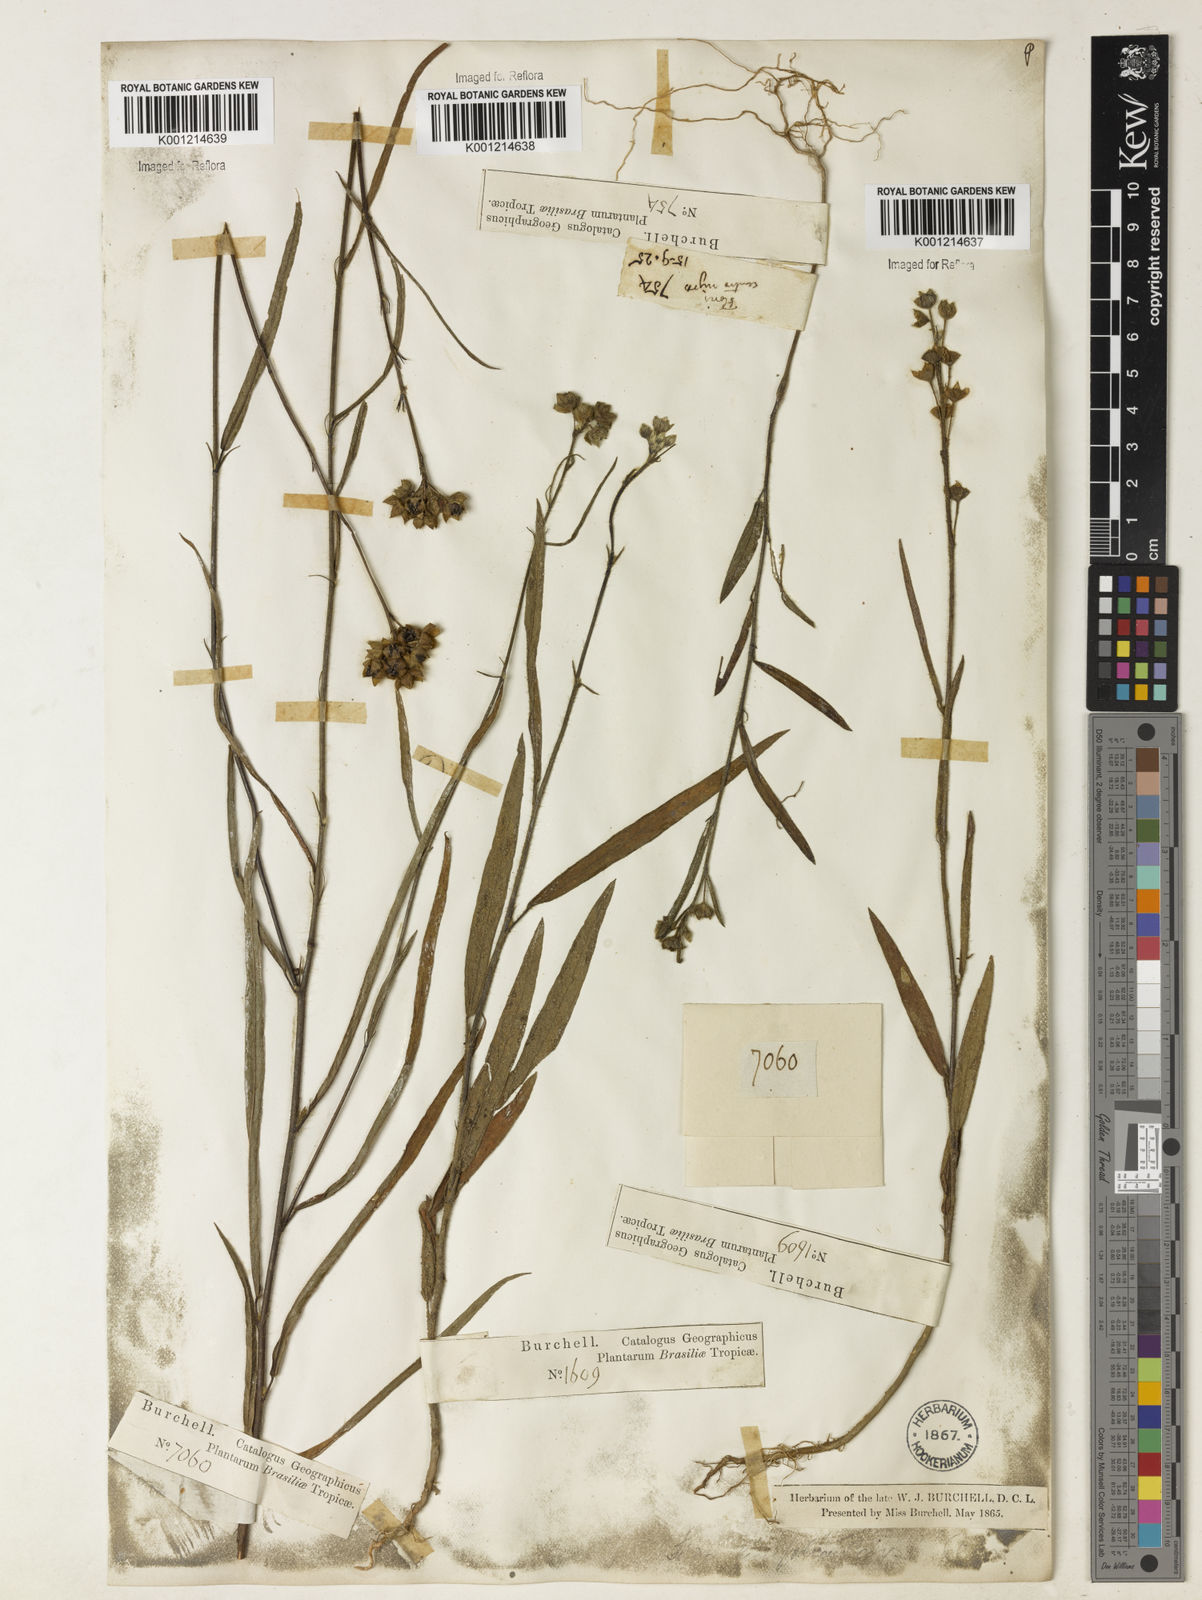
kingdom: Plantae
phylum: Tracheophyta
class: Magnoliopsida
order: Malvales
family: Malvaceae
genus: Sida
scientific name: Sida linifolia
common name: Flaxleaf fanpetals
